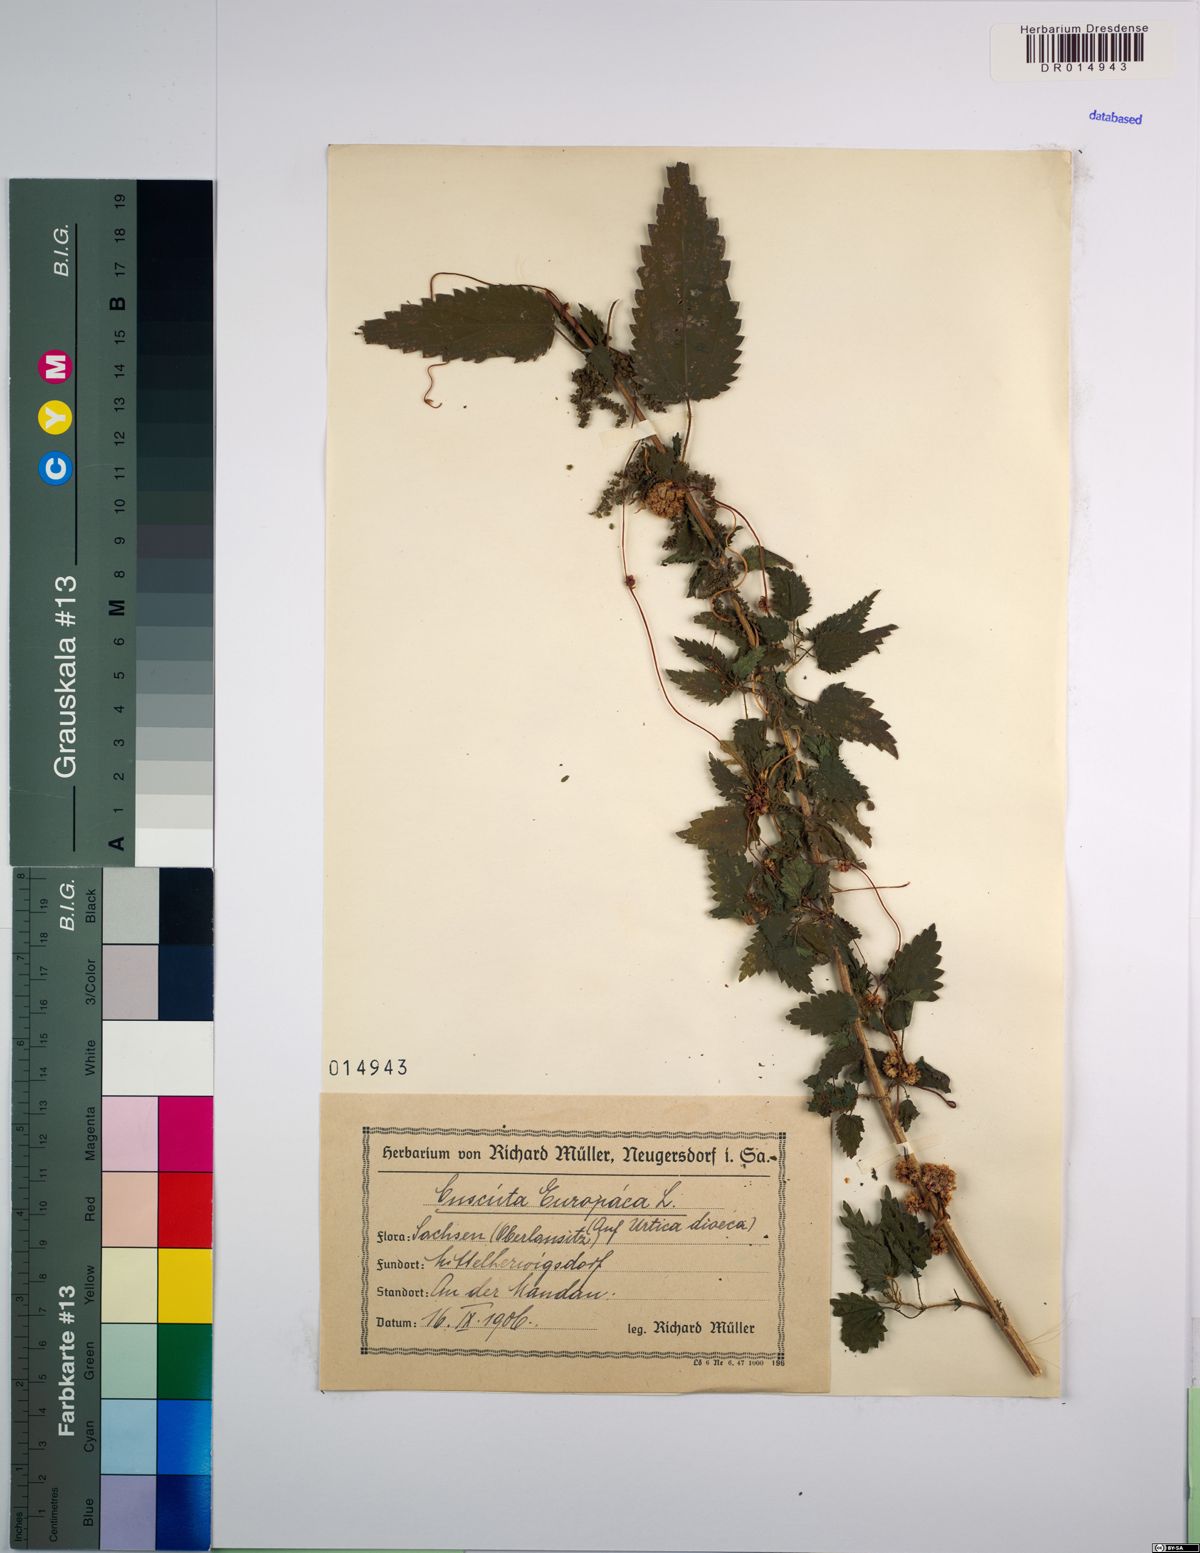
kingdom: Plantae
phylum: Tracheophyta
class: Magnoliopsida
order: Solanales
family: Convolvulaceae
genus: Cuscuta
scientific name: Cuscuta europaea
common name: Greater dodder
